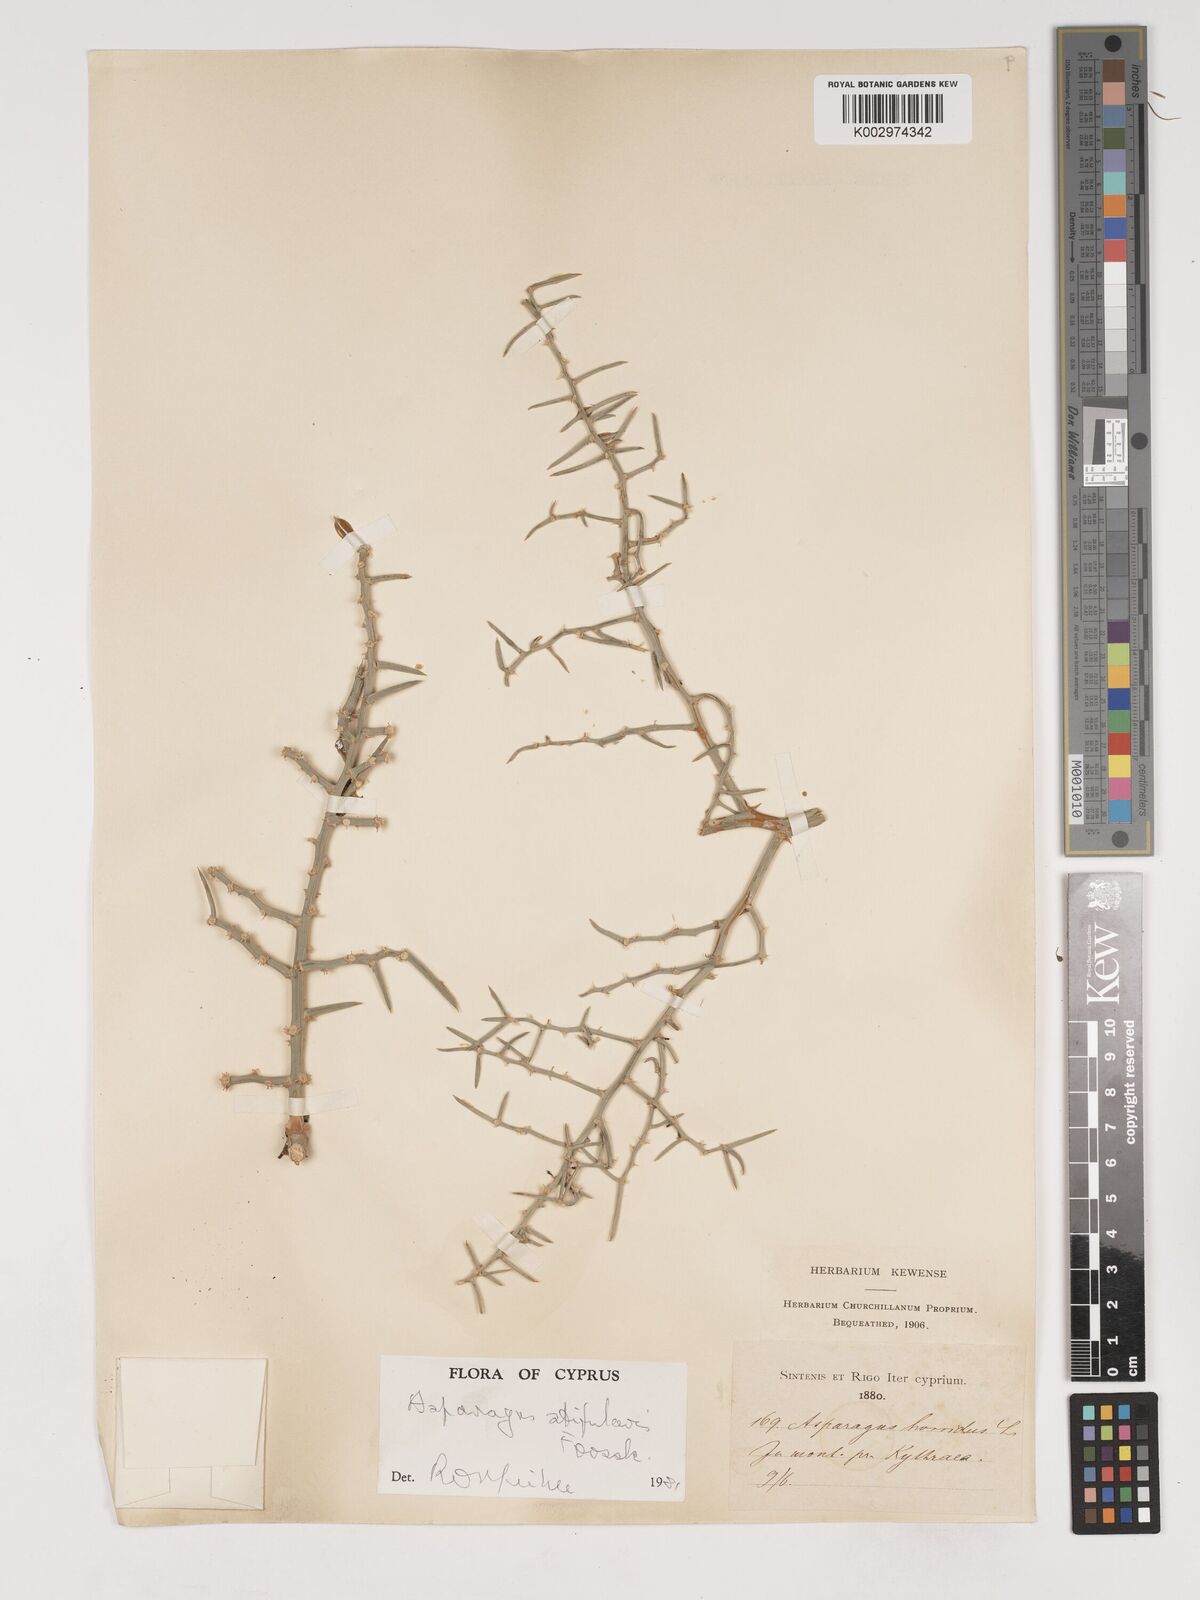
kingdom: Plantae
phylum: Tracheophyta
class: Liliopsida
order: Asparagales
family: Asparagaceae
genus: Asparagus
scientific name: Asparagus horridus
